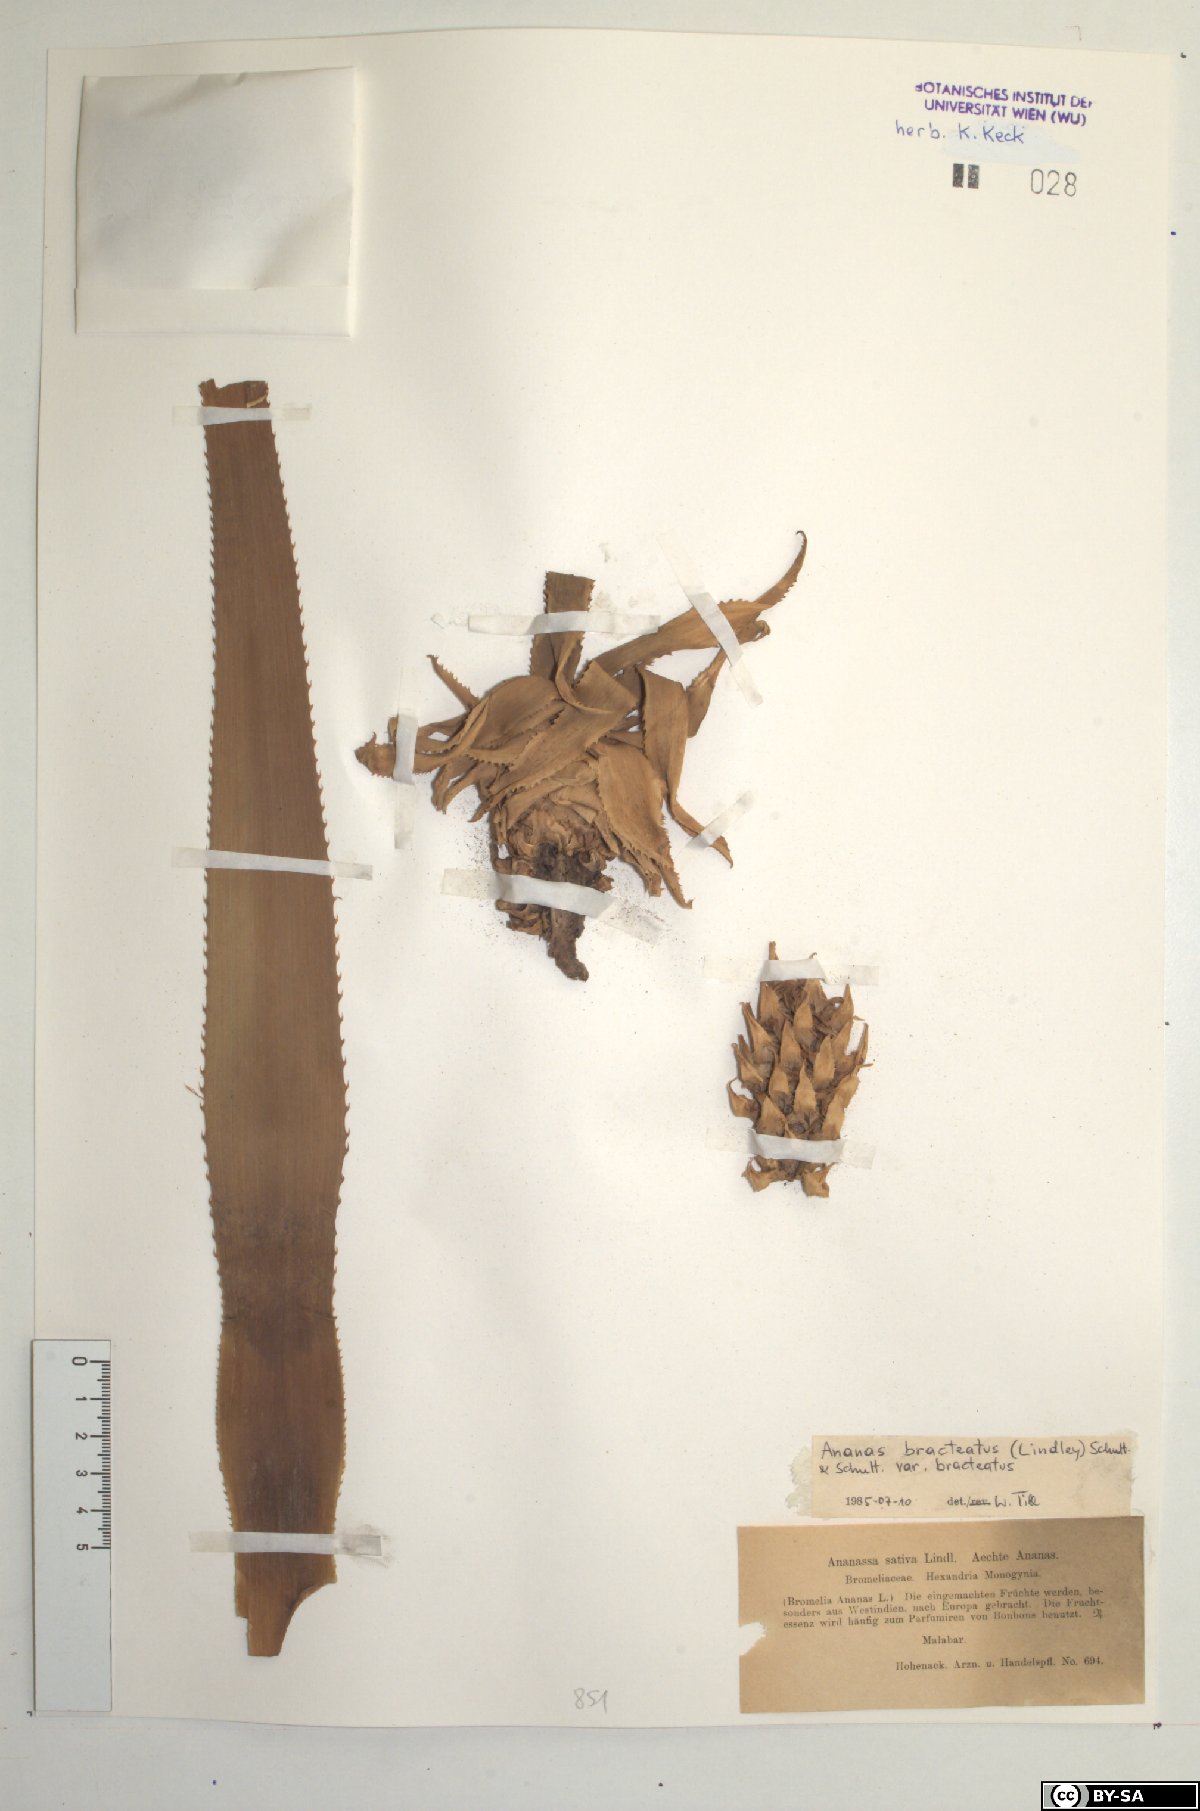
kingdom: Plantae
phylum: Tracheophyta
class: Liliopsida
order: Poales
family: Bromeliaceae
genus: Ananas
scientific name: Ananas comosus
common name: Pineapple
